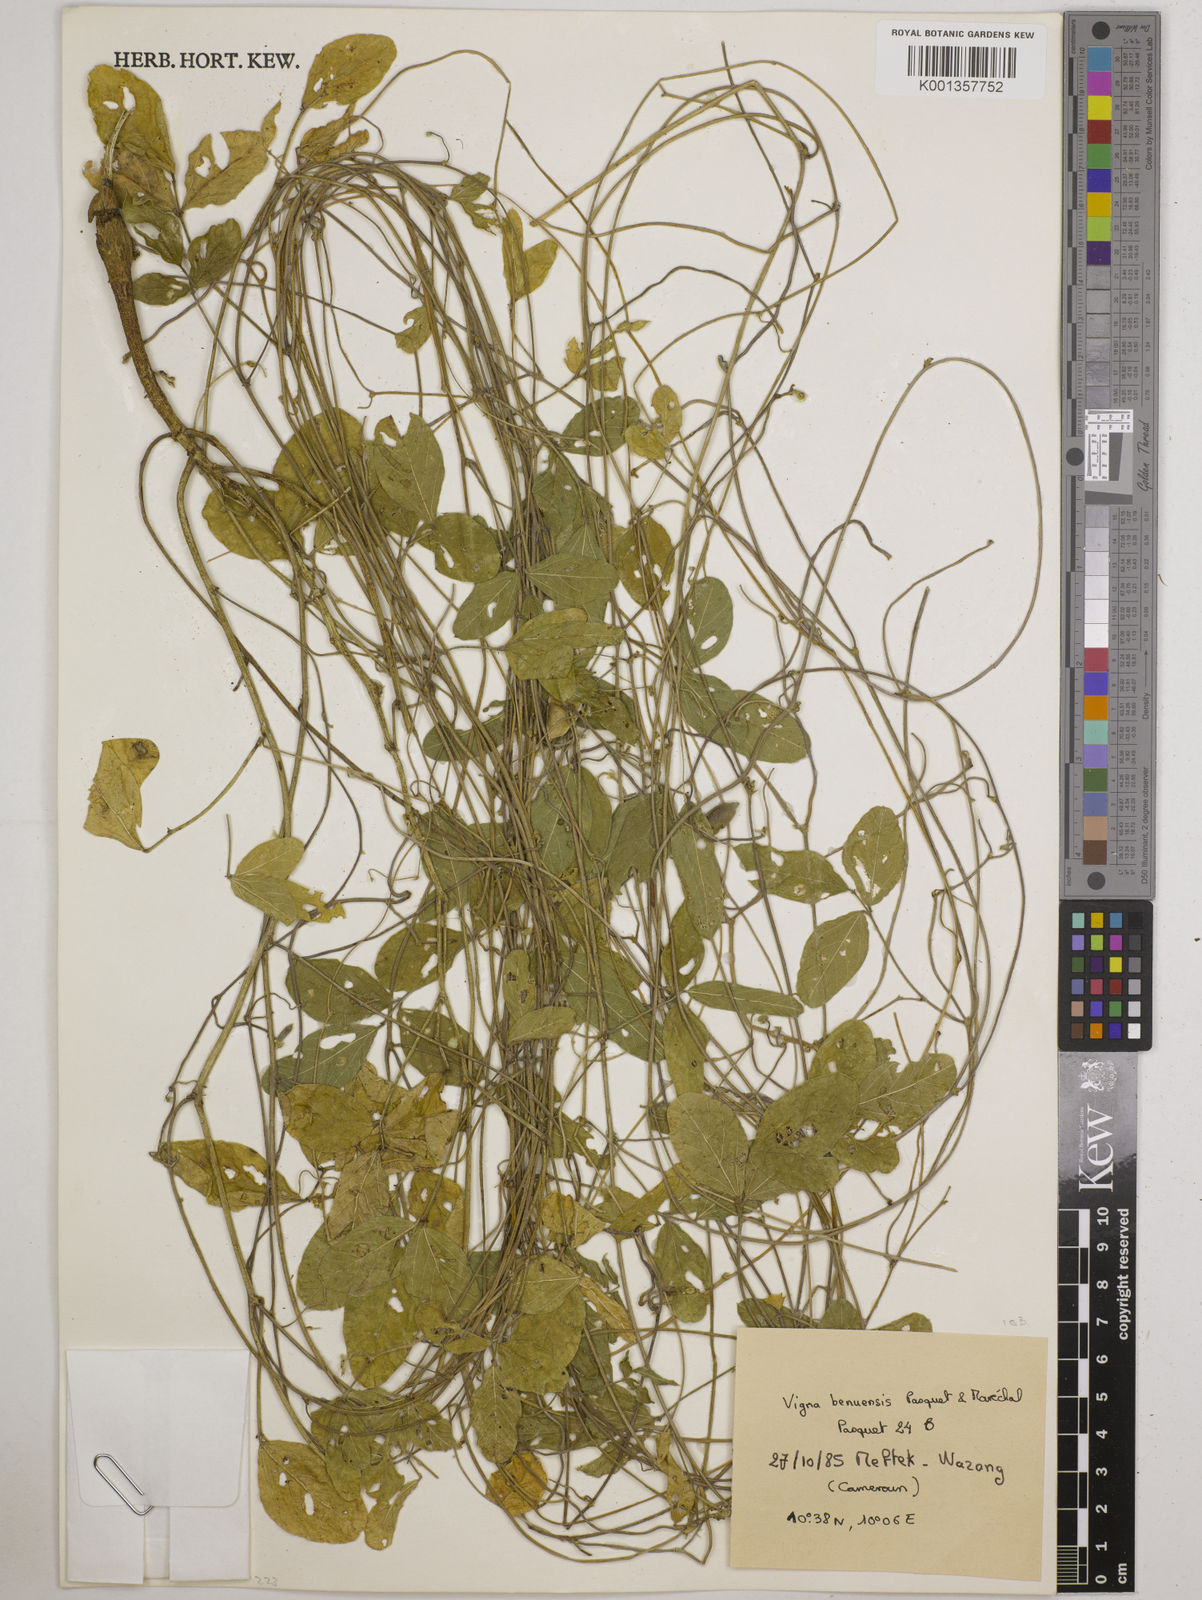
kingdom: Plantae
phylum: Tracheophyta
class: Magnoliopsida
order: Fabales
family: Fabaceae
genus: Vigna
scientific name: Vigna pubigera
